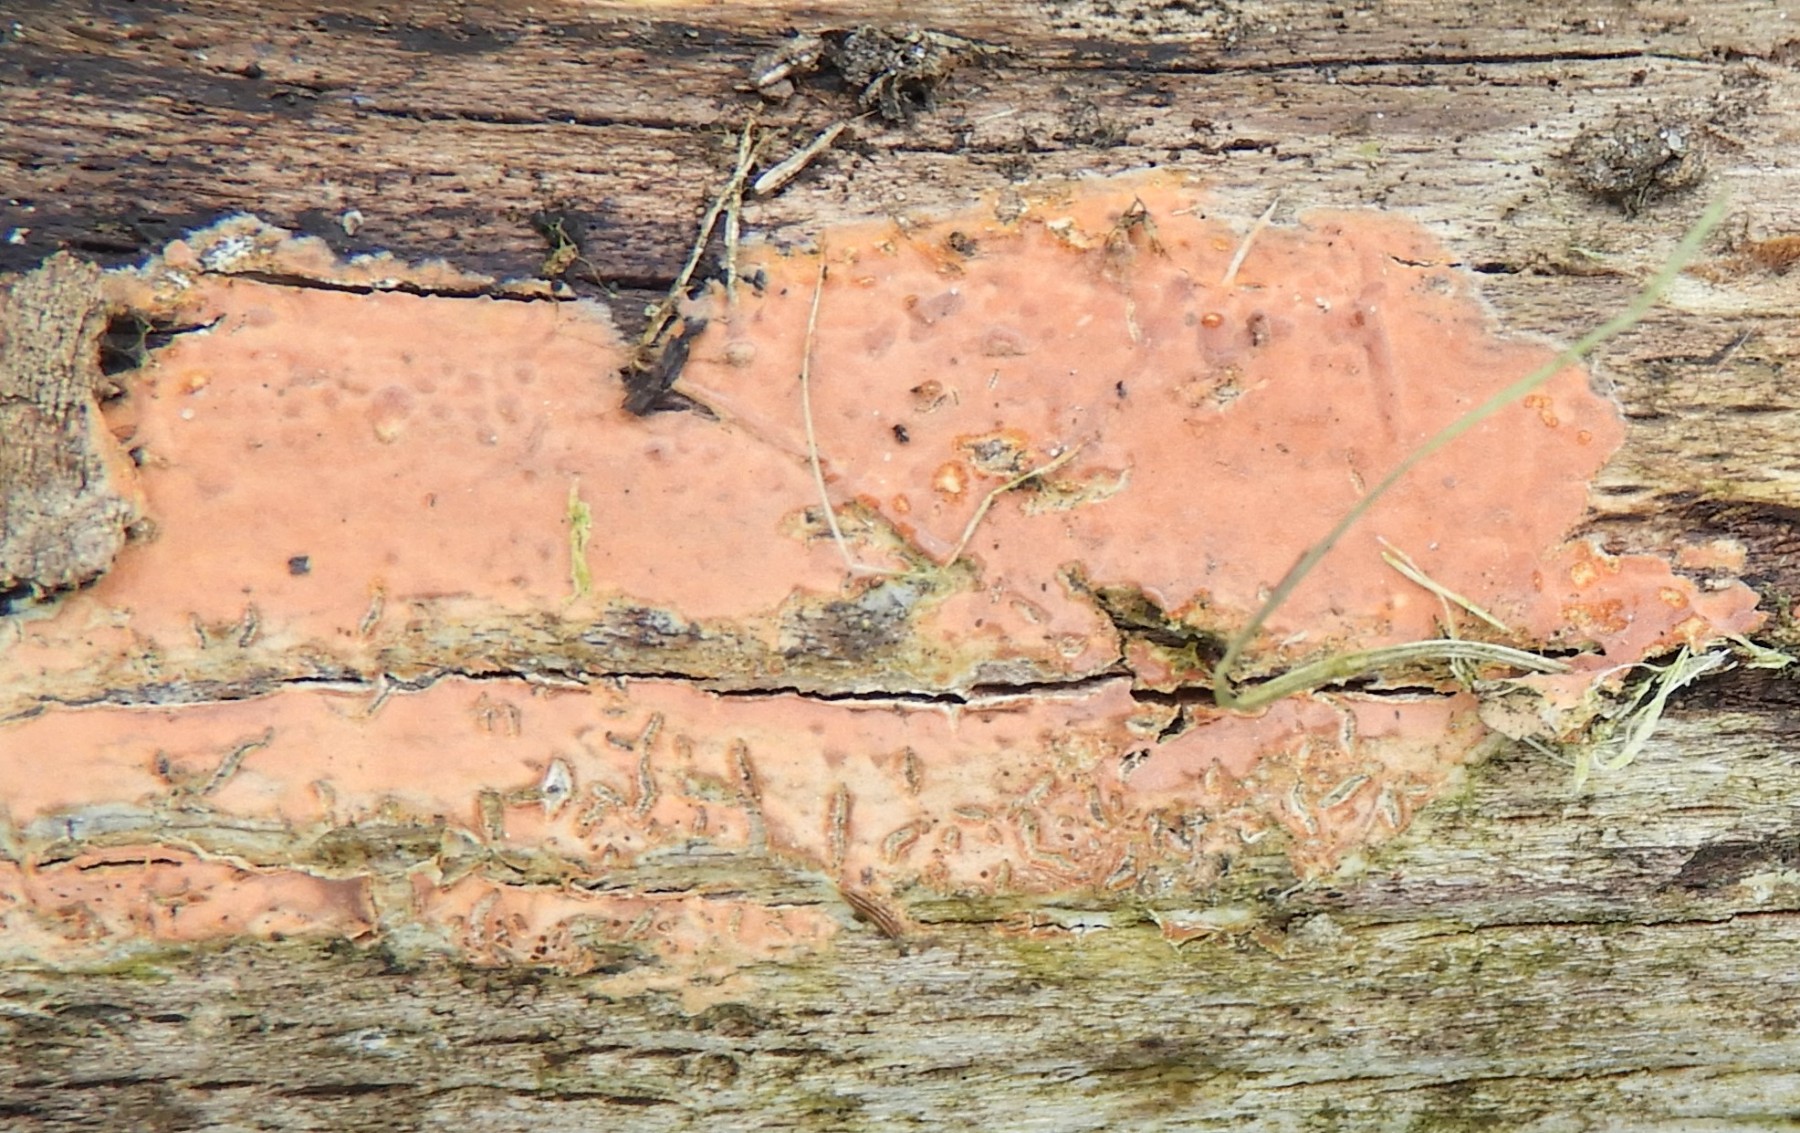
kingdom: Fungi
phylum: Basidiomycota
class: Agaricomycetes
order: Russulales
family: Peniophoraceae
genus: Peniophora
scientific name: Peniophora incarnata
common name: laksefarvet voksskind
